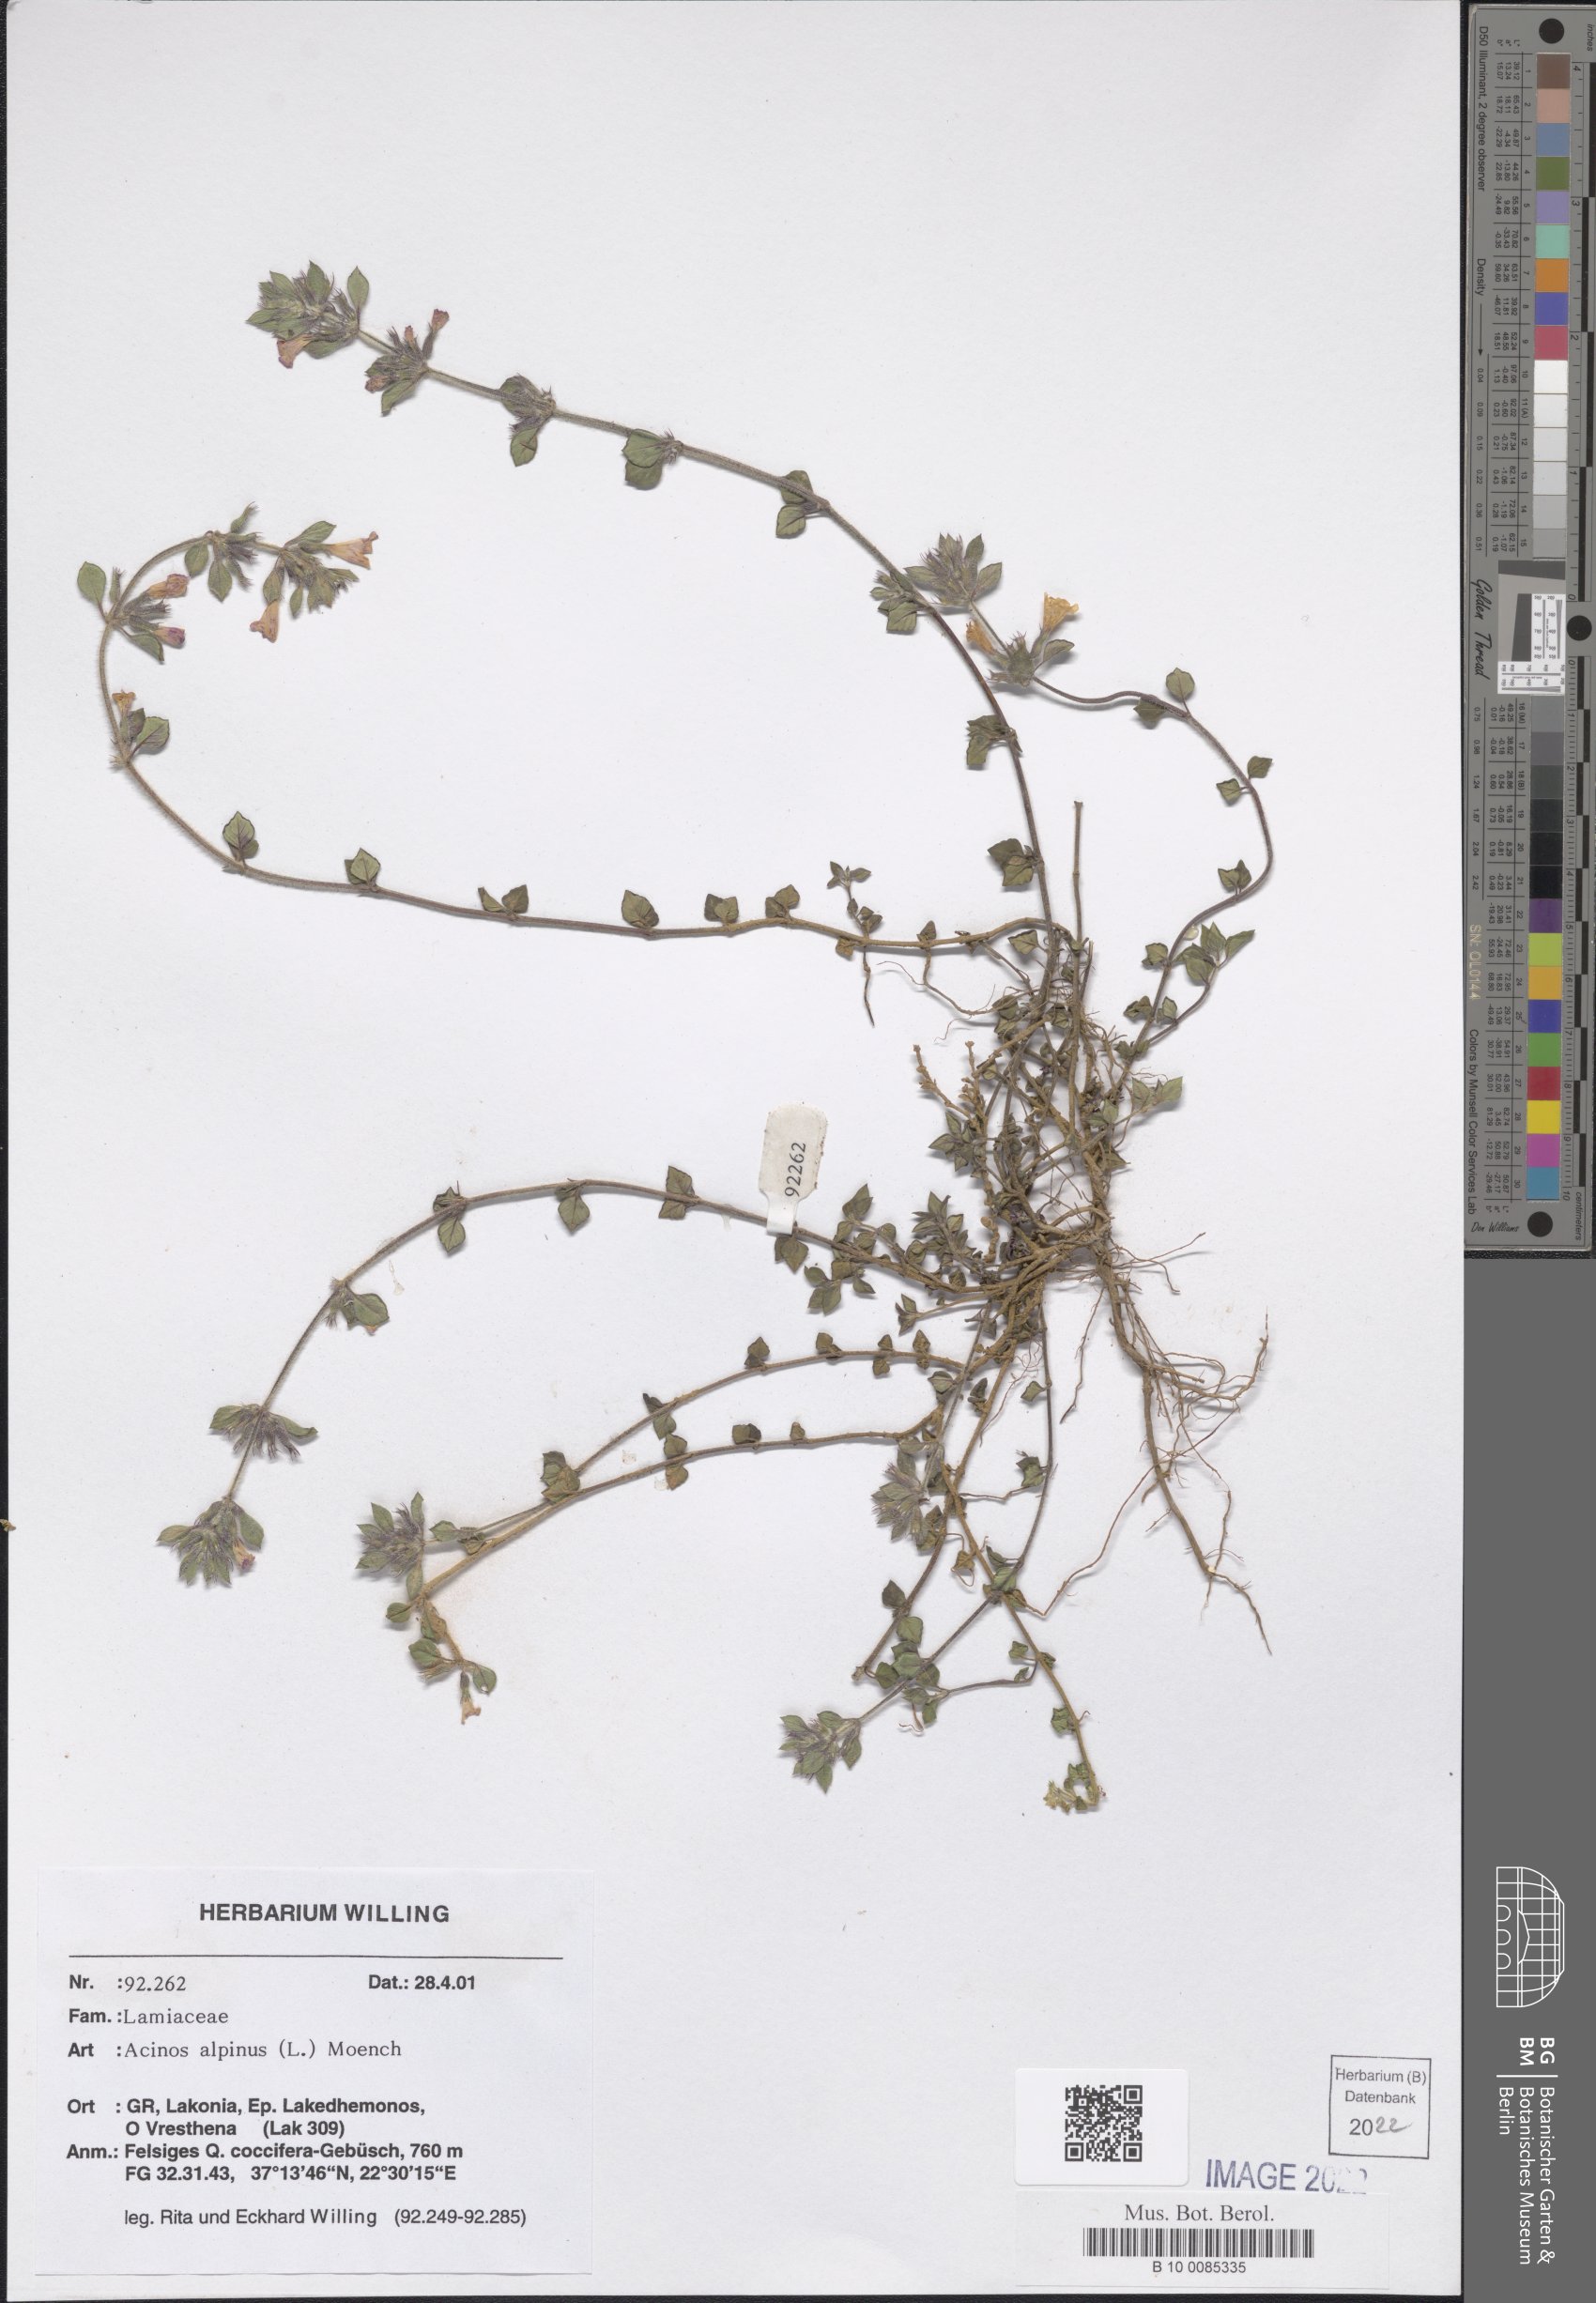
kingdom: Plantae
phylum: Tracheophyta
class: Magnoliopsida
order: Lamiales
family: Lamiaceae
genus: Clinopodium
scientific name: Clinopodium alpinum
